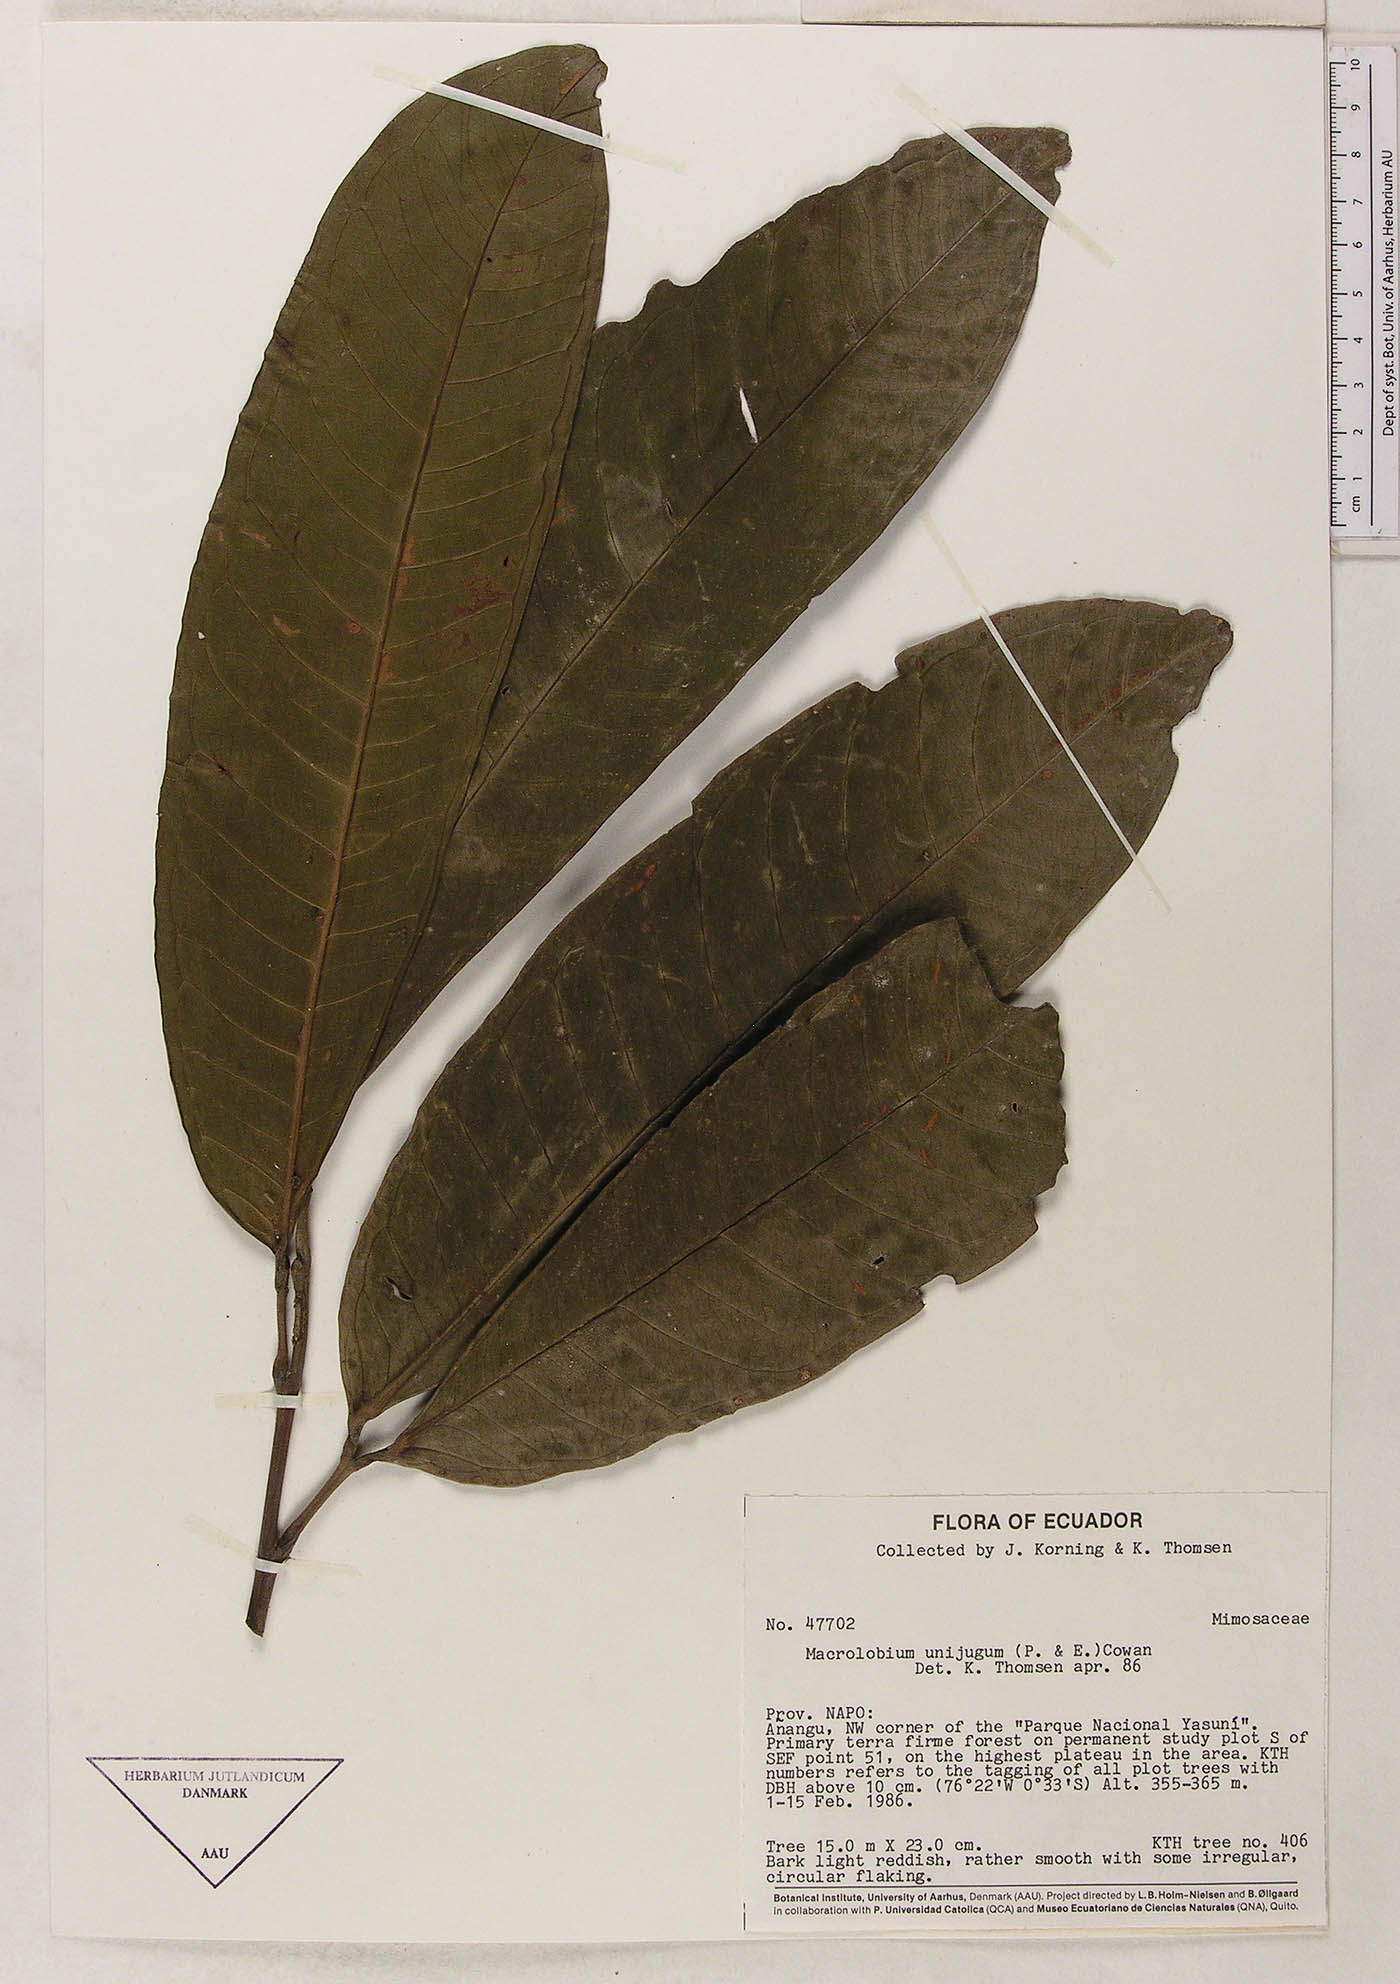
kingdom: Plantae
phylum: Tracheophyta
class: Magnoliopsida
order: Fabales
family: Fabaceae
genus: Macrolobium
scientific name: Macrolobium limbatum
